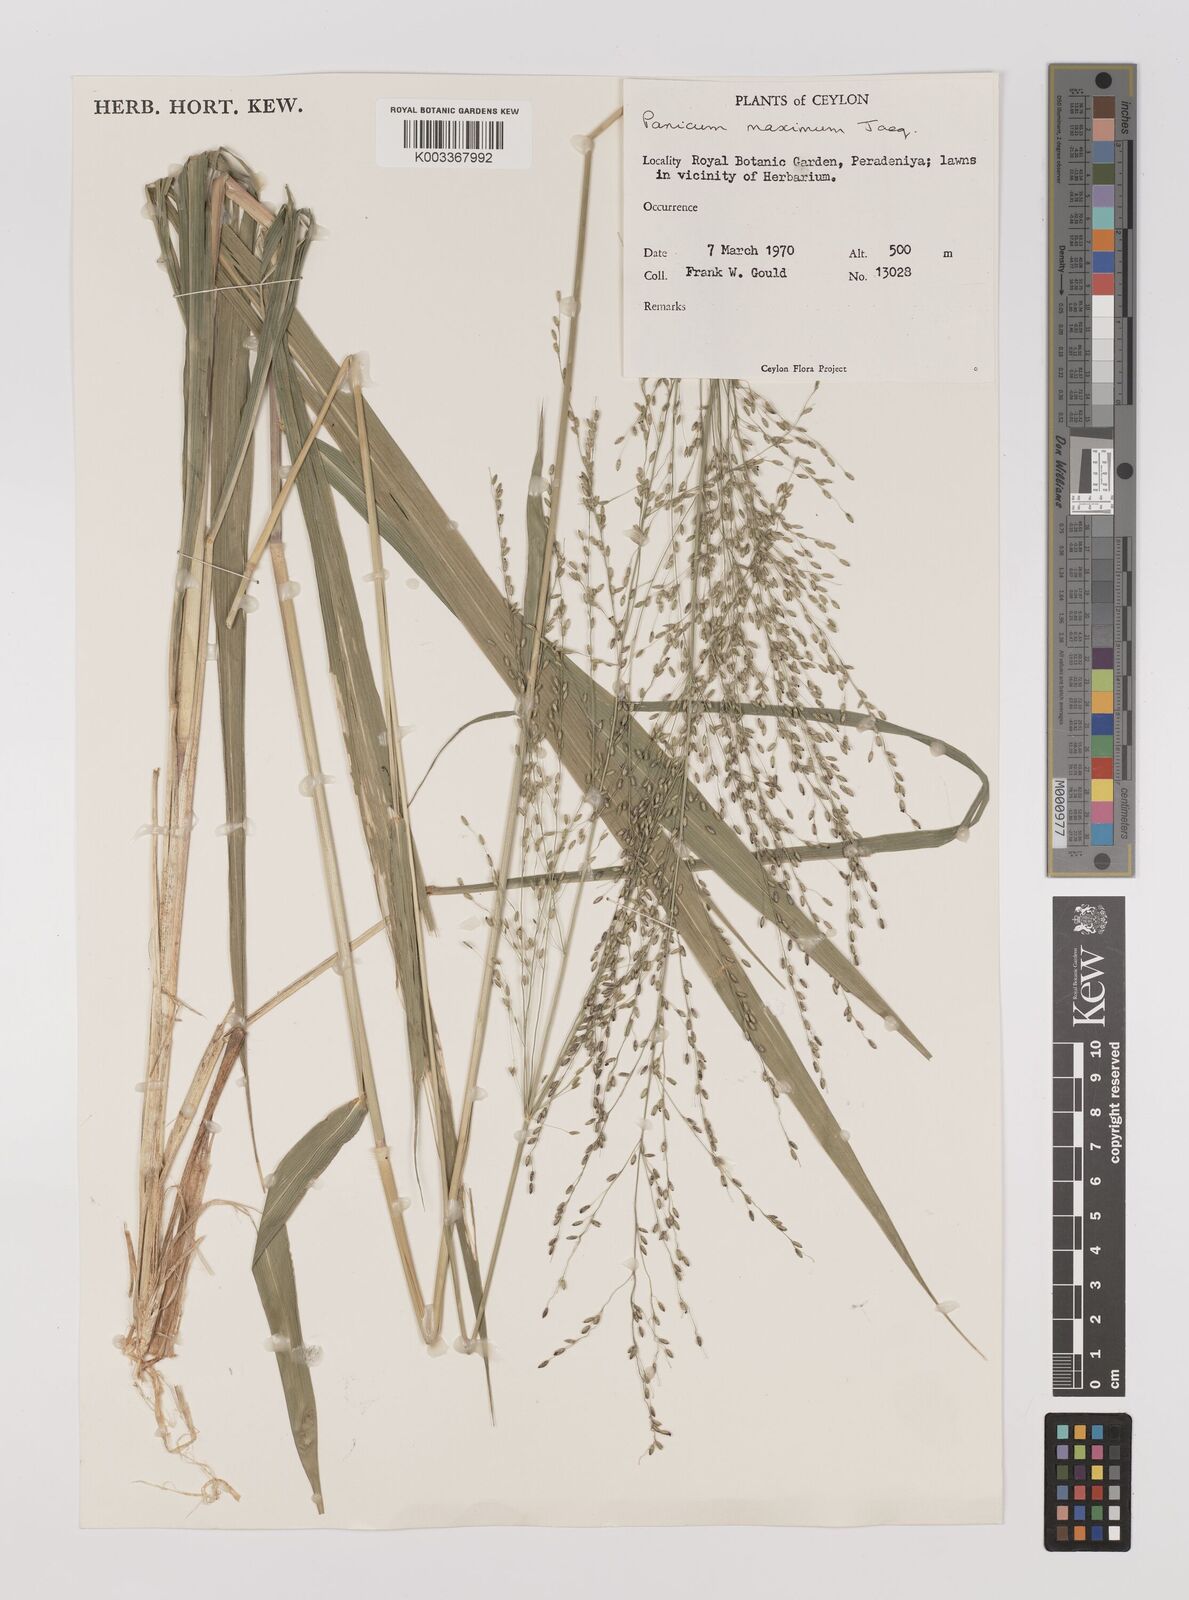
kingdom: Plantae
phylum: Tracheophyta
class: Liliopsida
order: Poales
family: Poaceae
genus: Megathyrsus
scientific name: Megathyrsus maximus
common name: Guineagrass
